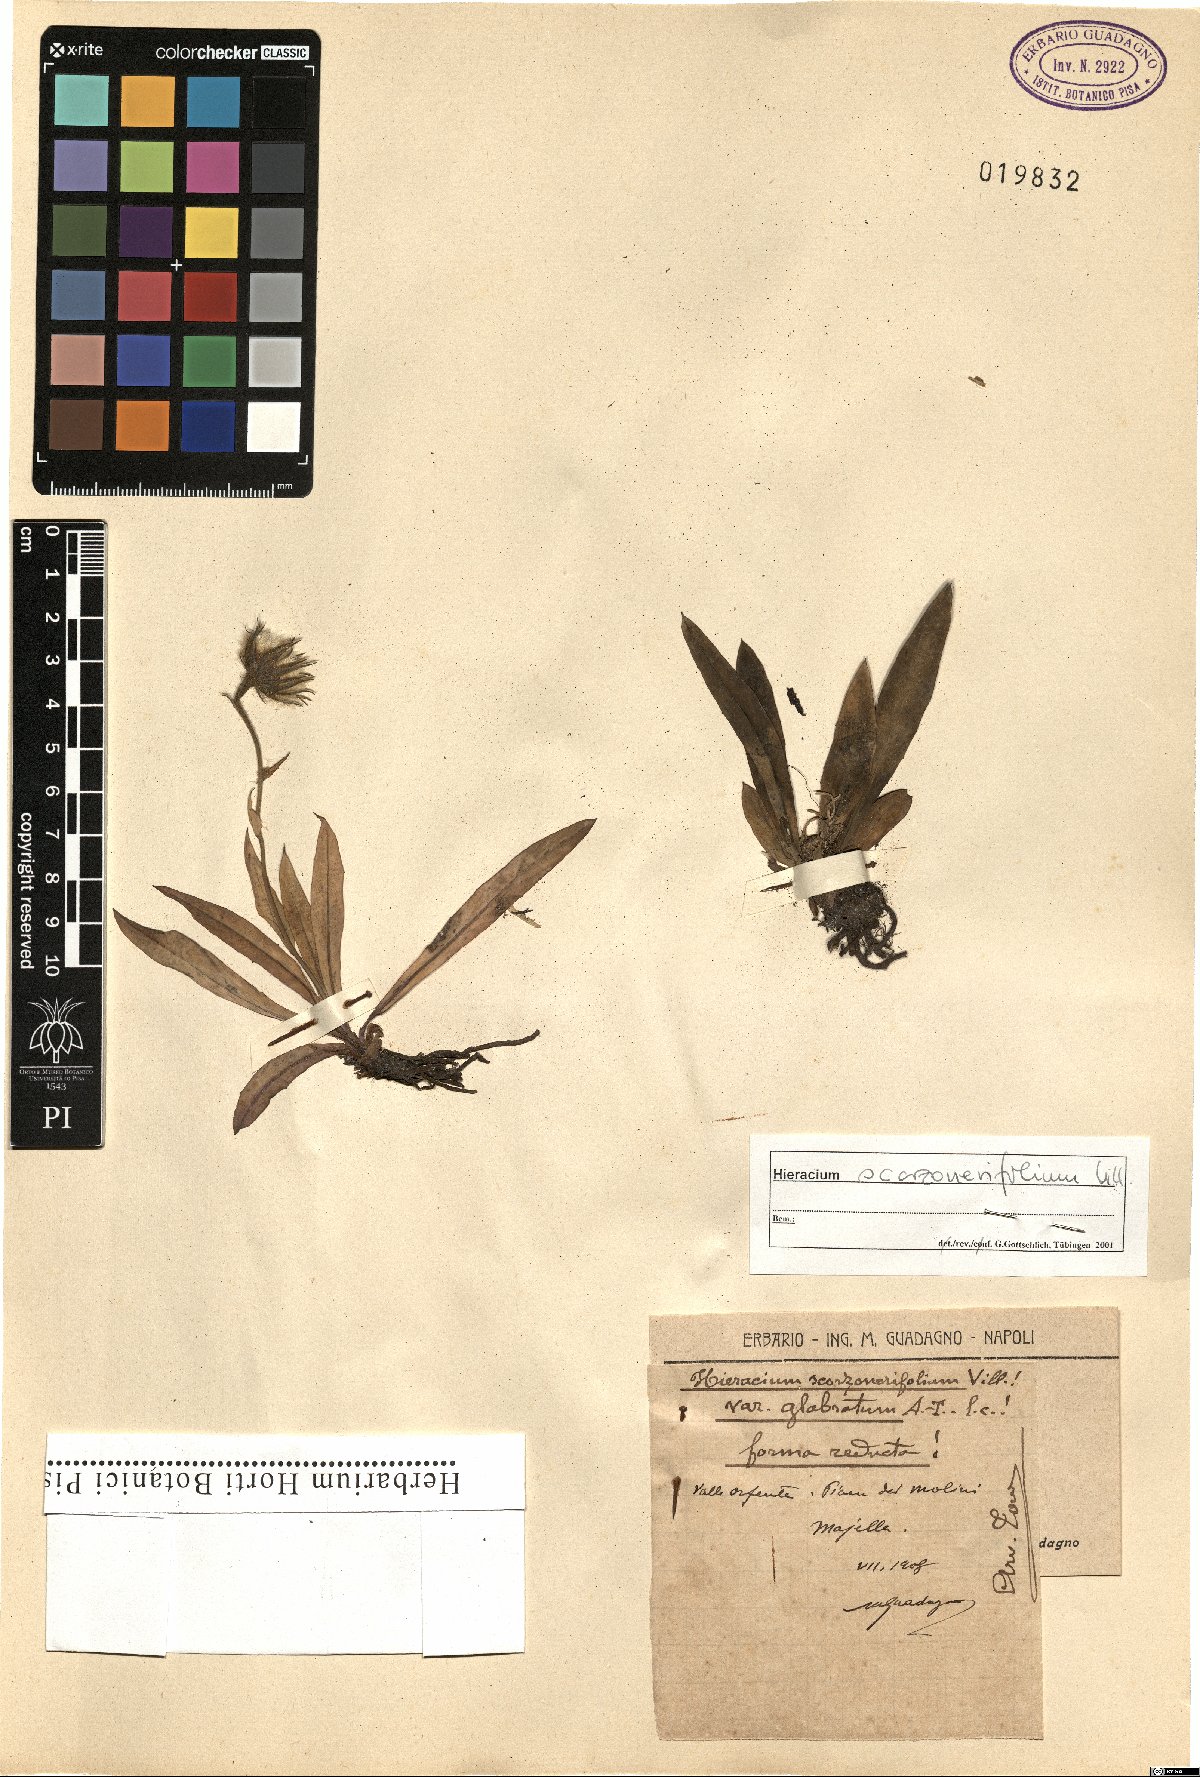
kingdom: Plantae
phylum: Tracheophyta
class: Magnoliopsida
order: Asterales
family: Asteraceae
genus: Hieracium
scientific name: Hieracium scorzonerifolium
